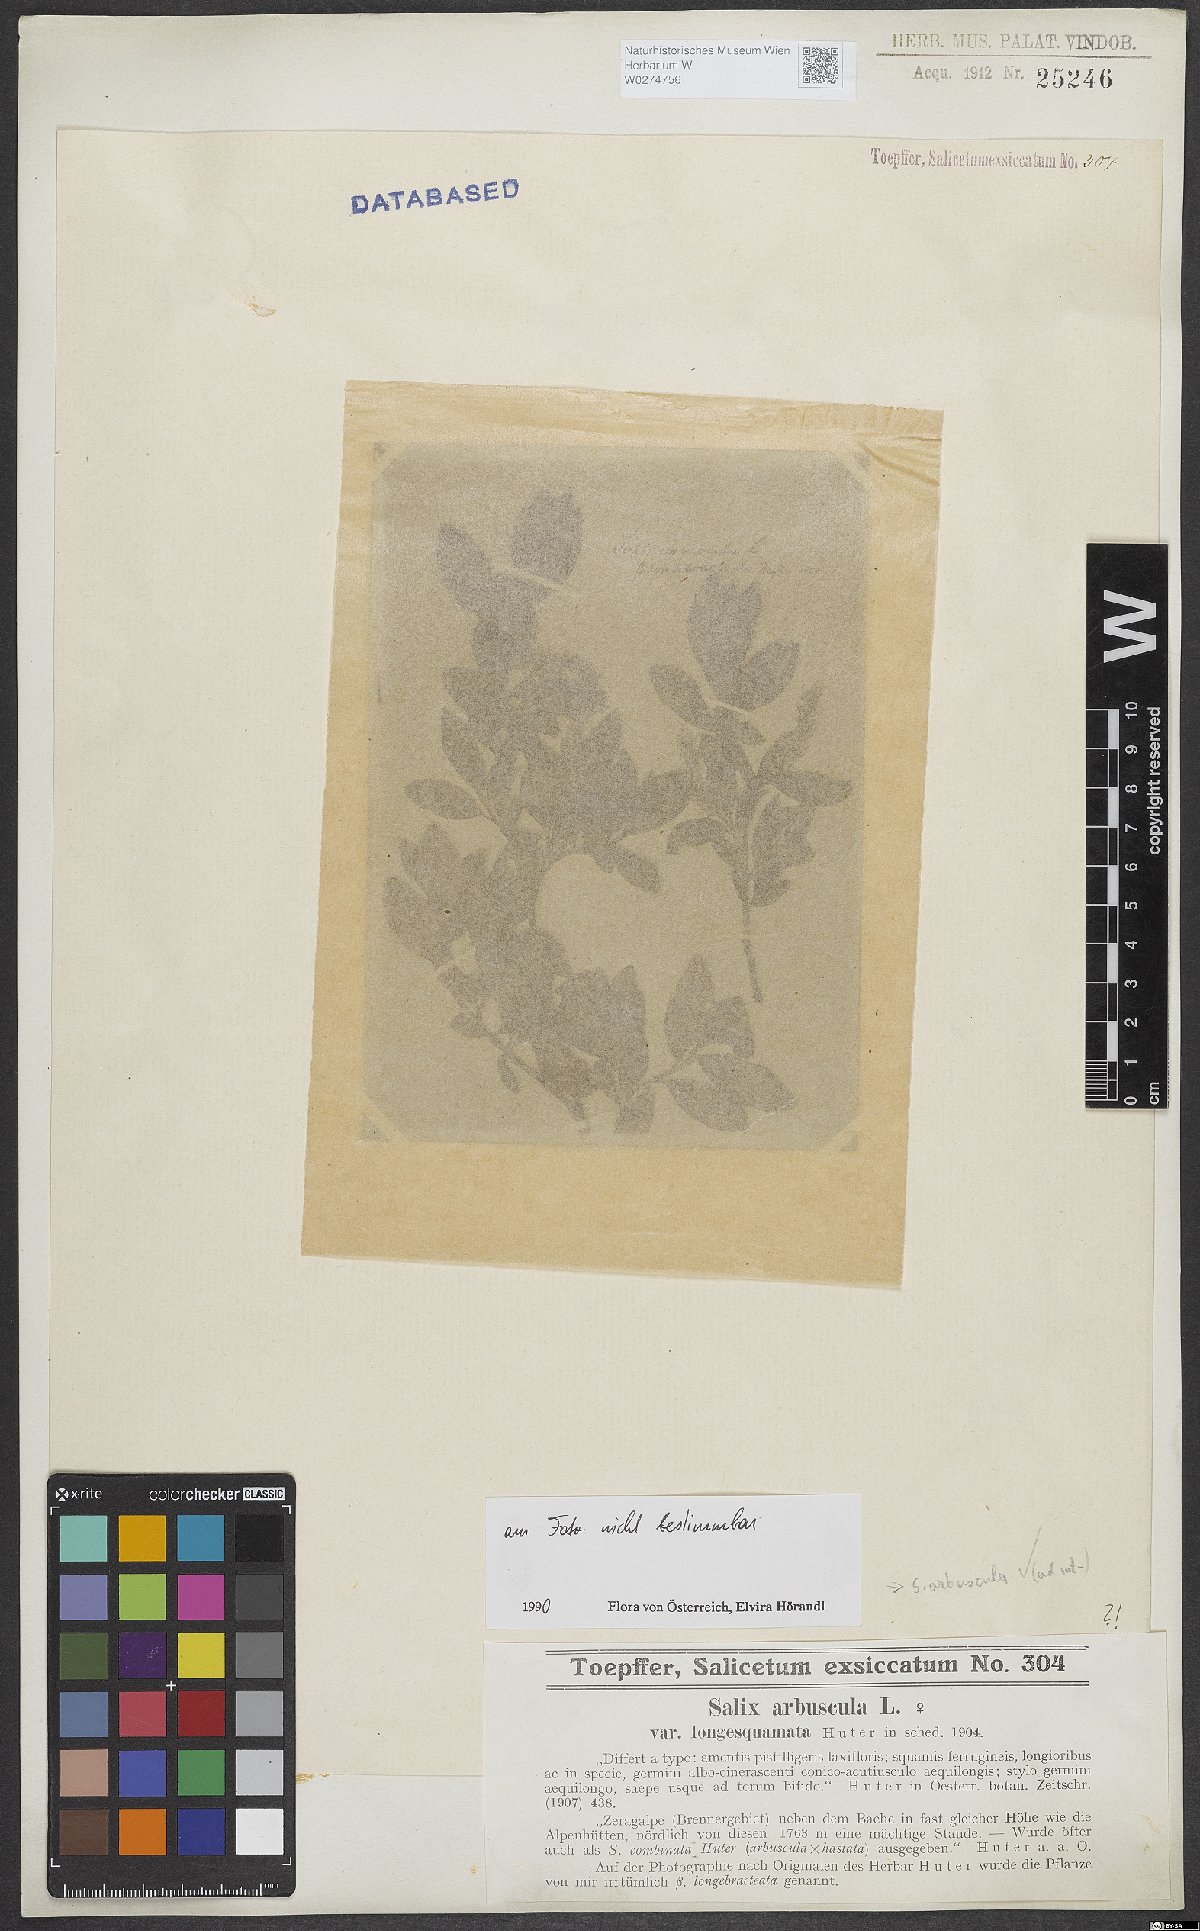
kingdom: Plantae
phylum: Tracheophyta
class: Magnoliopsida
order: Malpighiales
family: Salicaceae
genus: Salix
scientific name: Salix arbuscula
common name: Mountain willow
